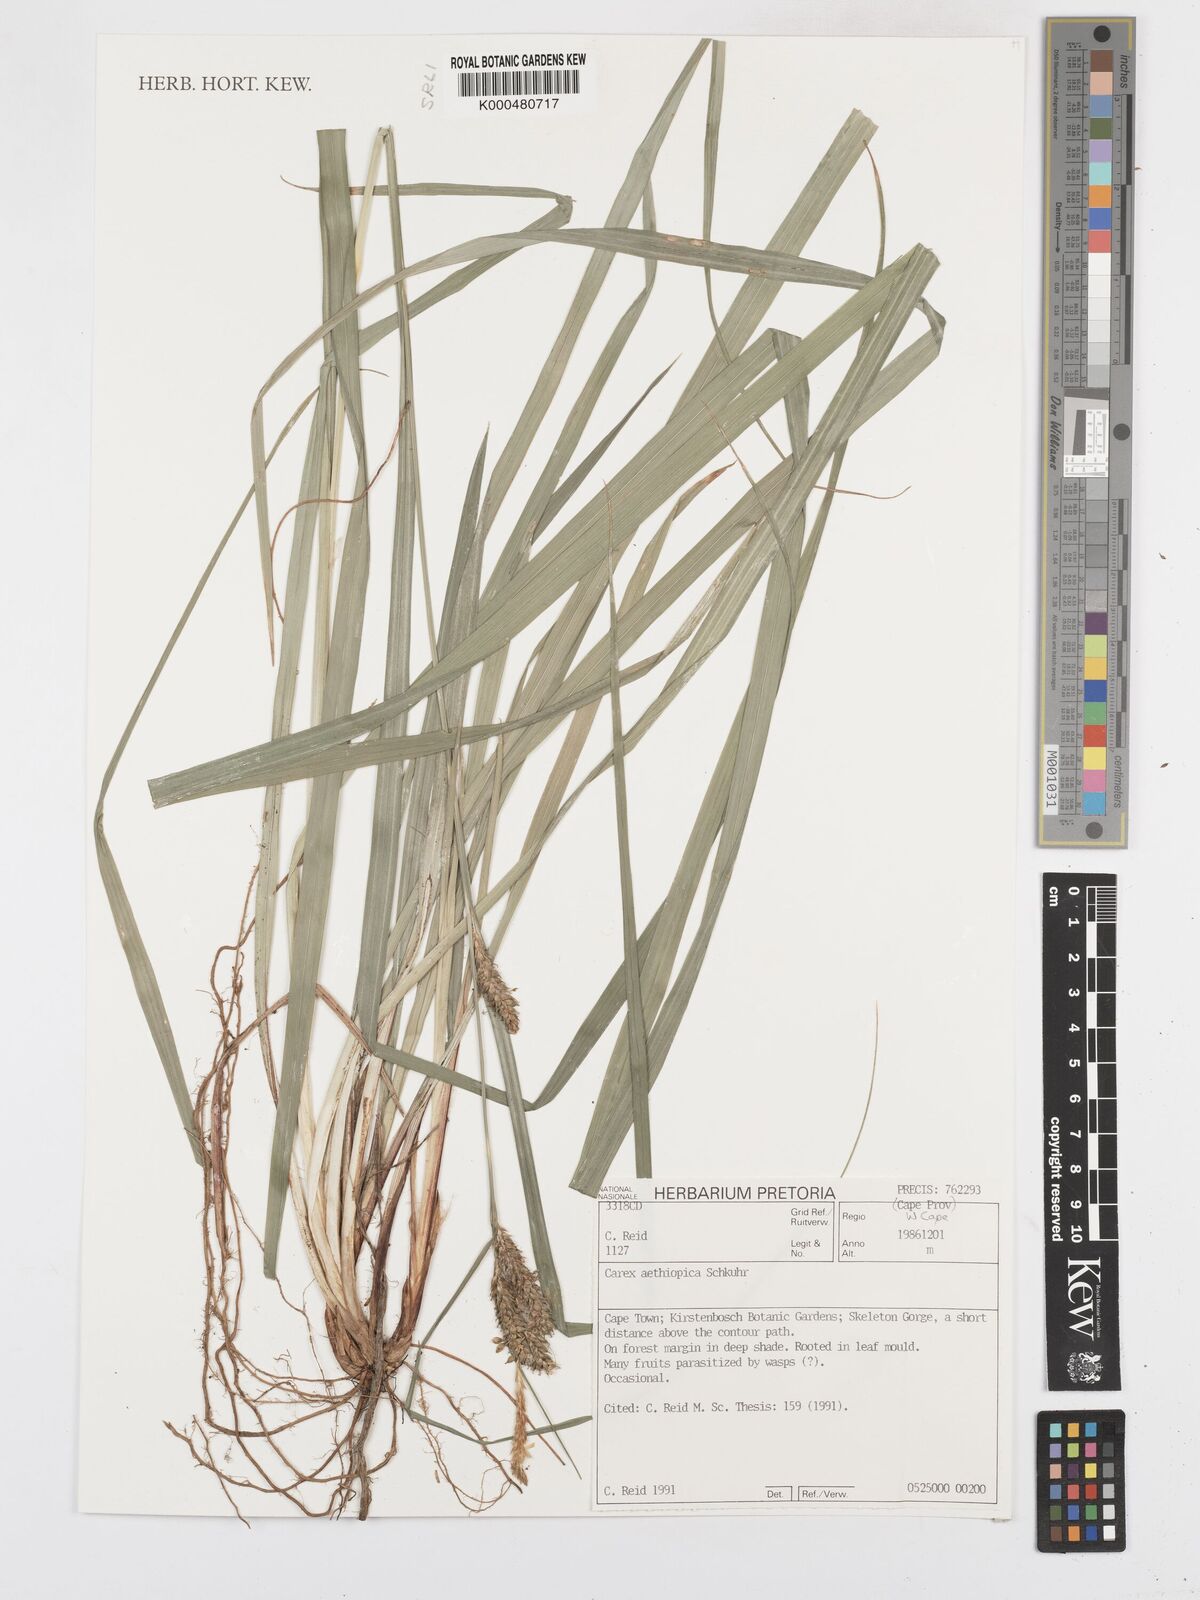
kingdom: Plantae
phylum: Tracheophyta
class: Liliopsida
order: Poales
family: Cyperaceae
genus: Carex
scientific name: Carex aethiopica
